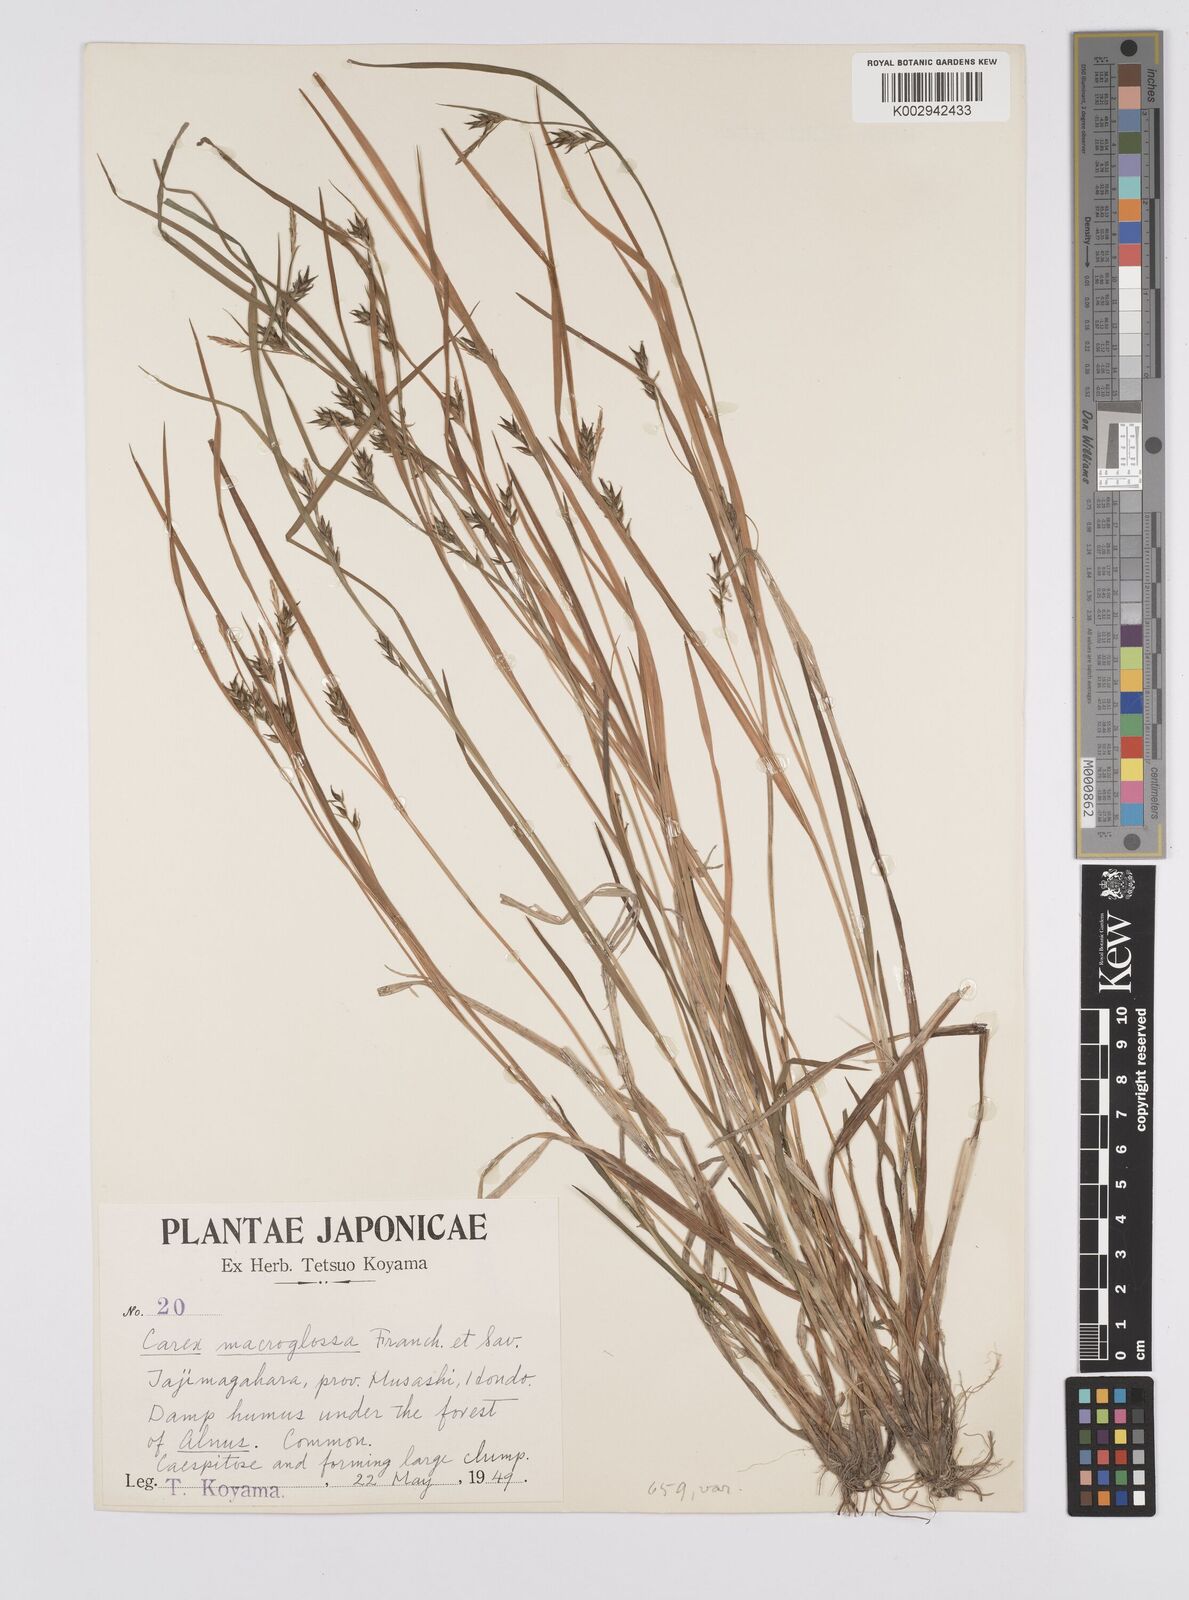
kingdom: Plantae
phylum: Tracheophyta
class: Liliopsida
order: Poales
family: Cyperaceae
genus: Carex
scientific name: Carex jackiana
